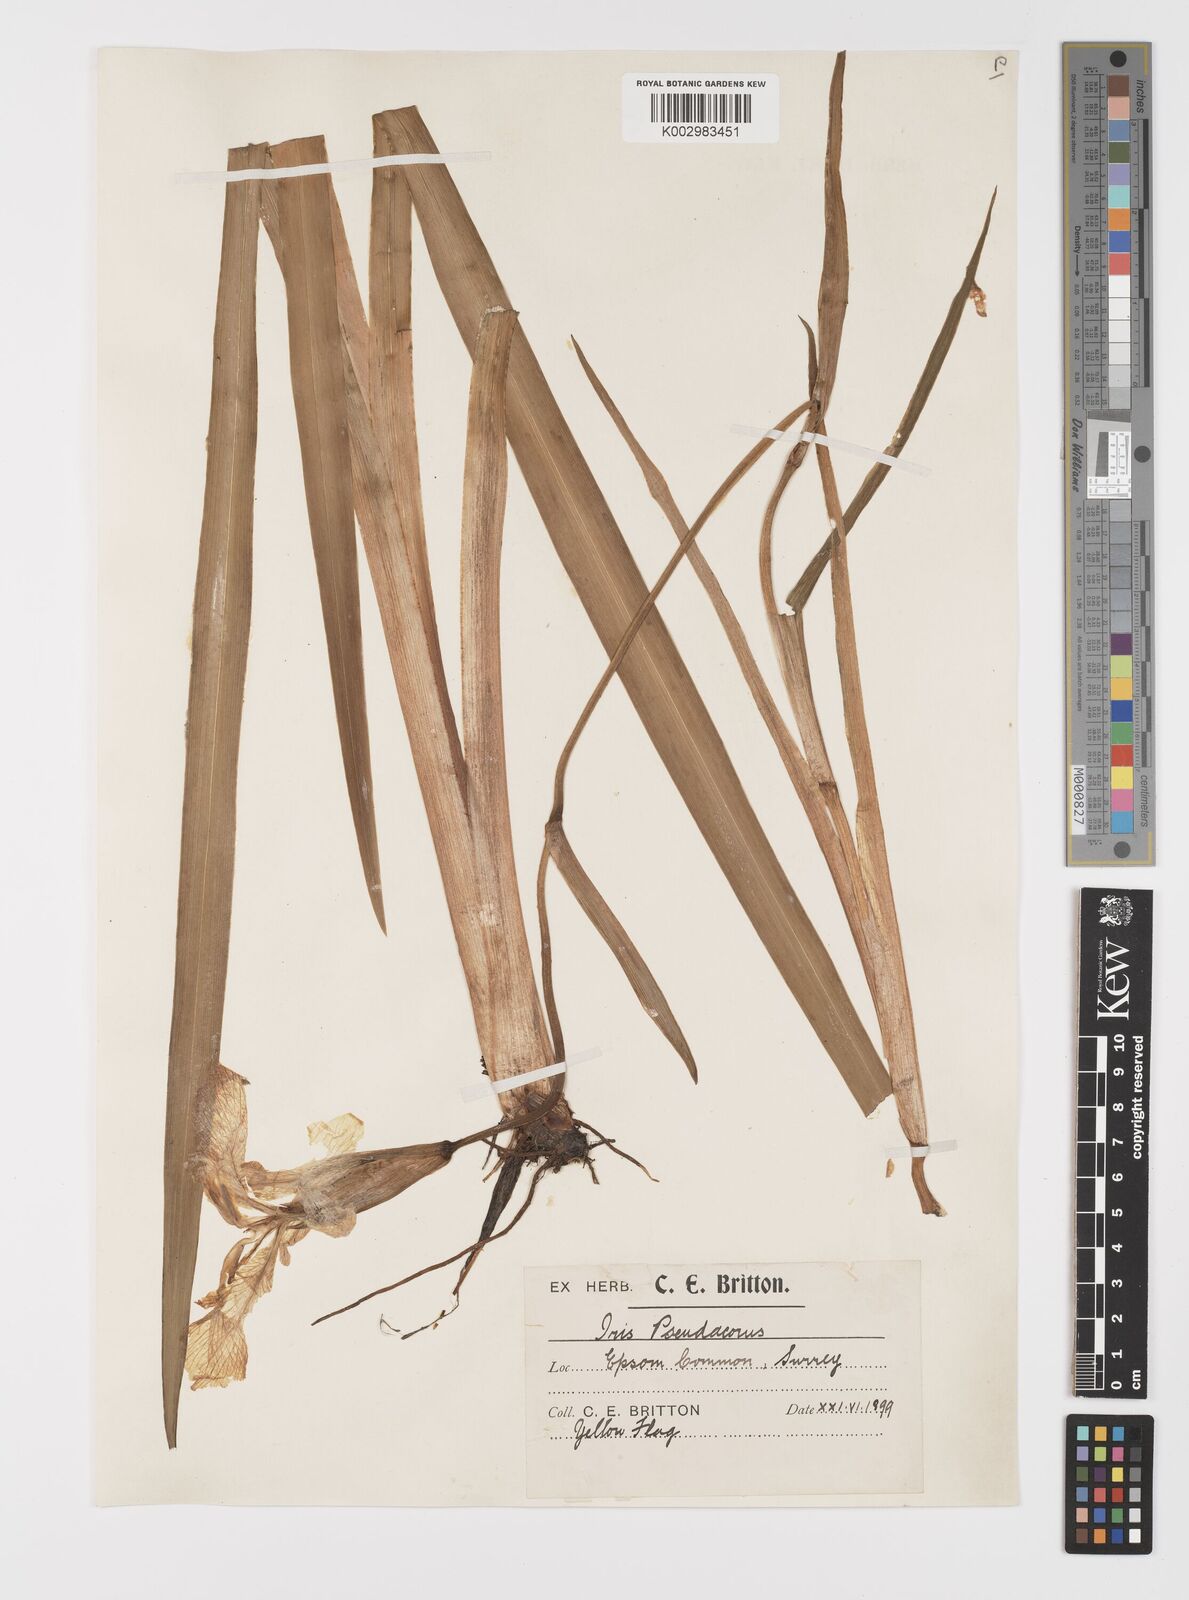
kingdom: Plantae
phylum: Tracheophyta
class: Liliopsida
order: Asparagales
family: Iridaceae
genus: Iris
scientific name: Iris pseudacorus
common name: Yellow flag
